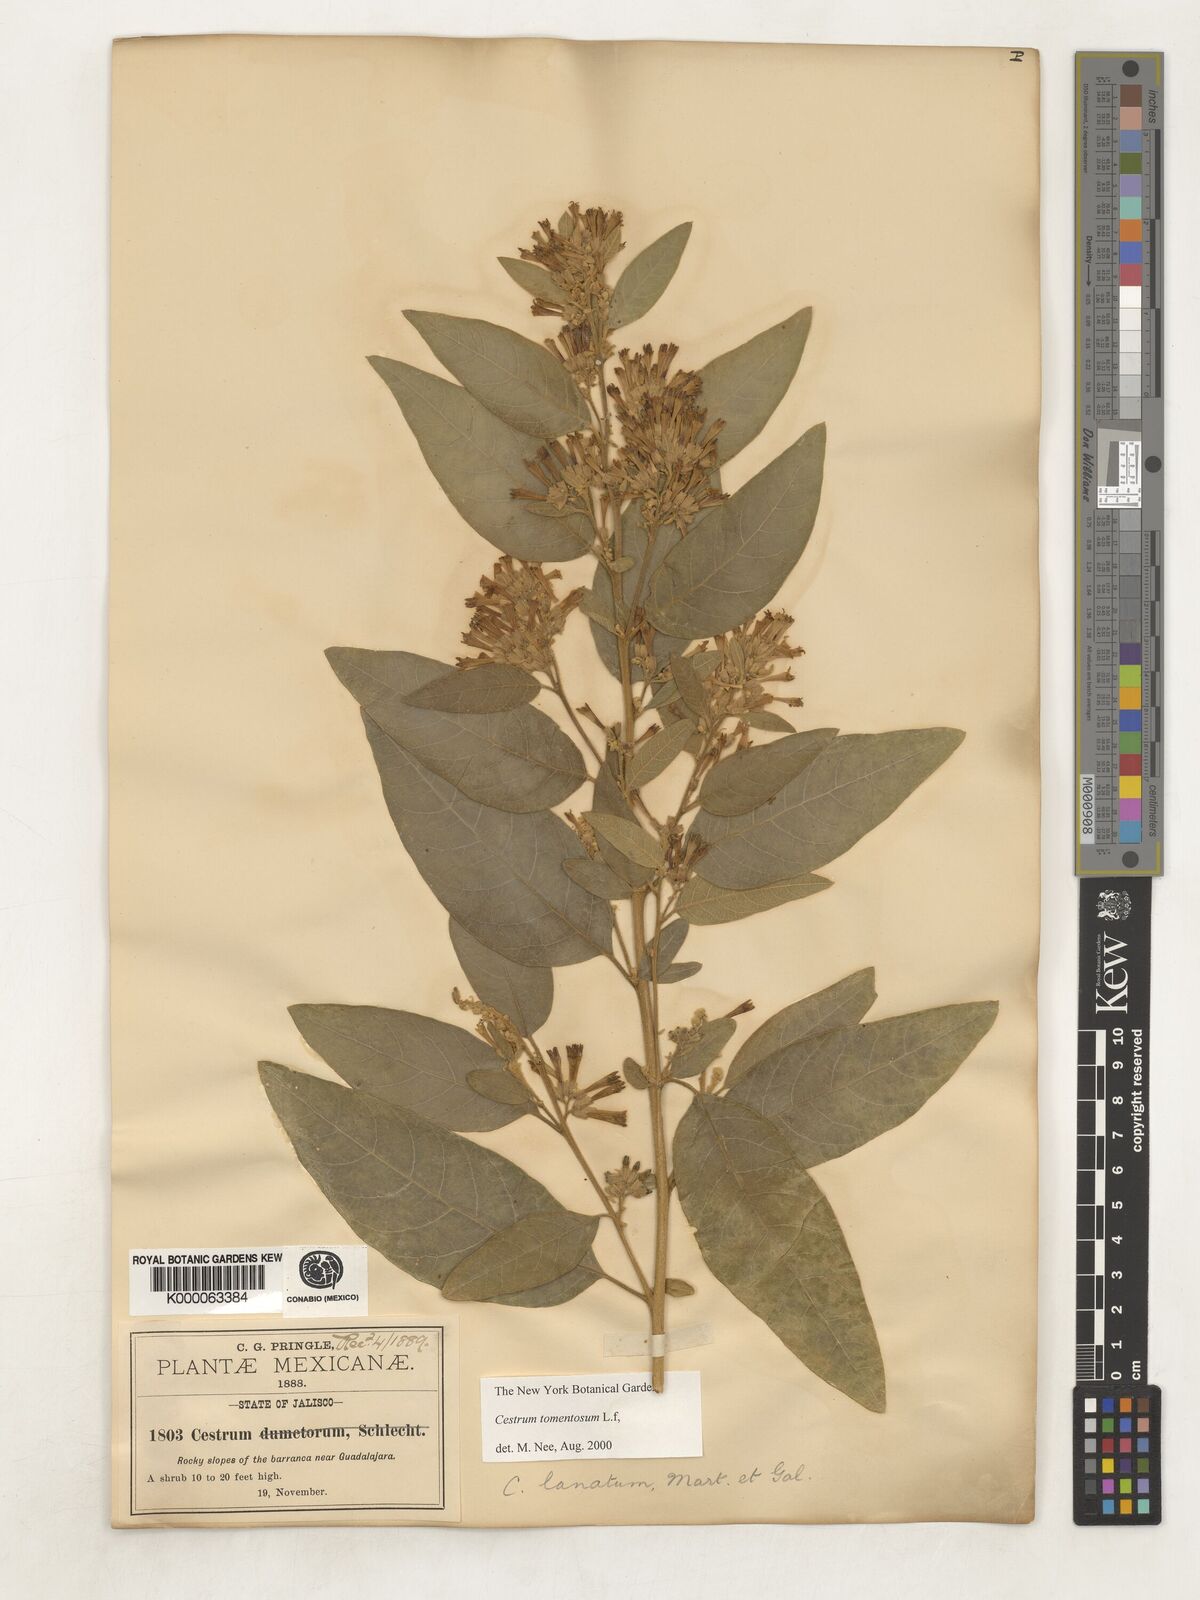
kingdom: Plantae
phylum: Tracheophyta
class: Magnoliopsida
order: Solanales
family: Solanaceae
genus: Cestrum
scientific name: Cestrum tomentosum
